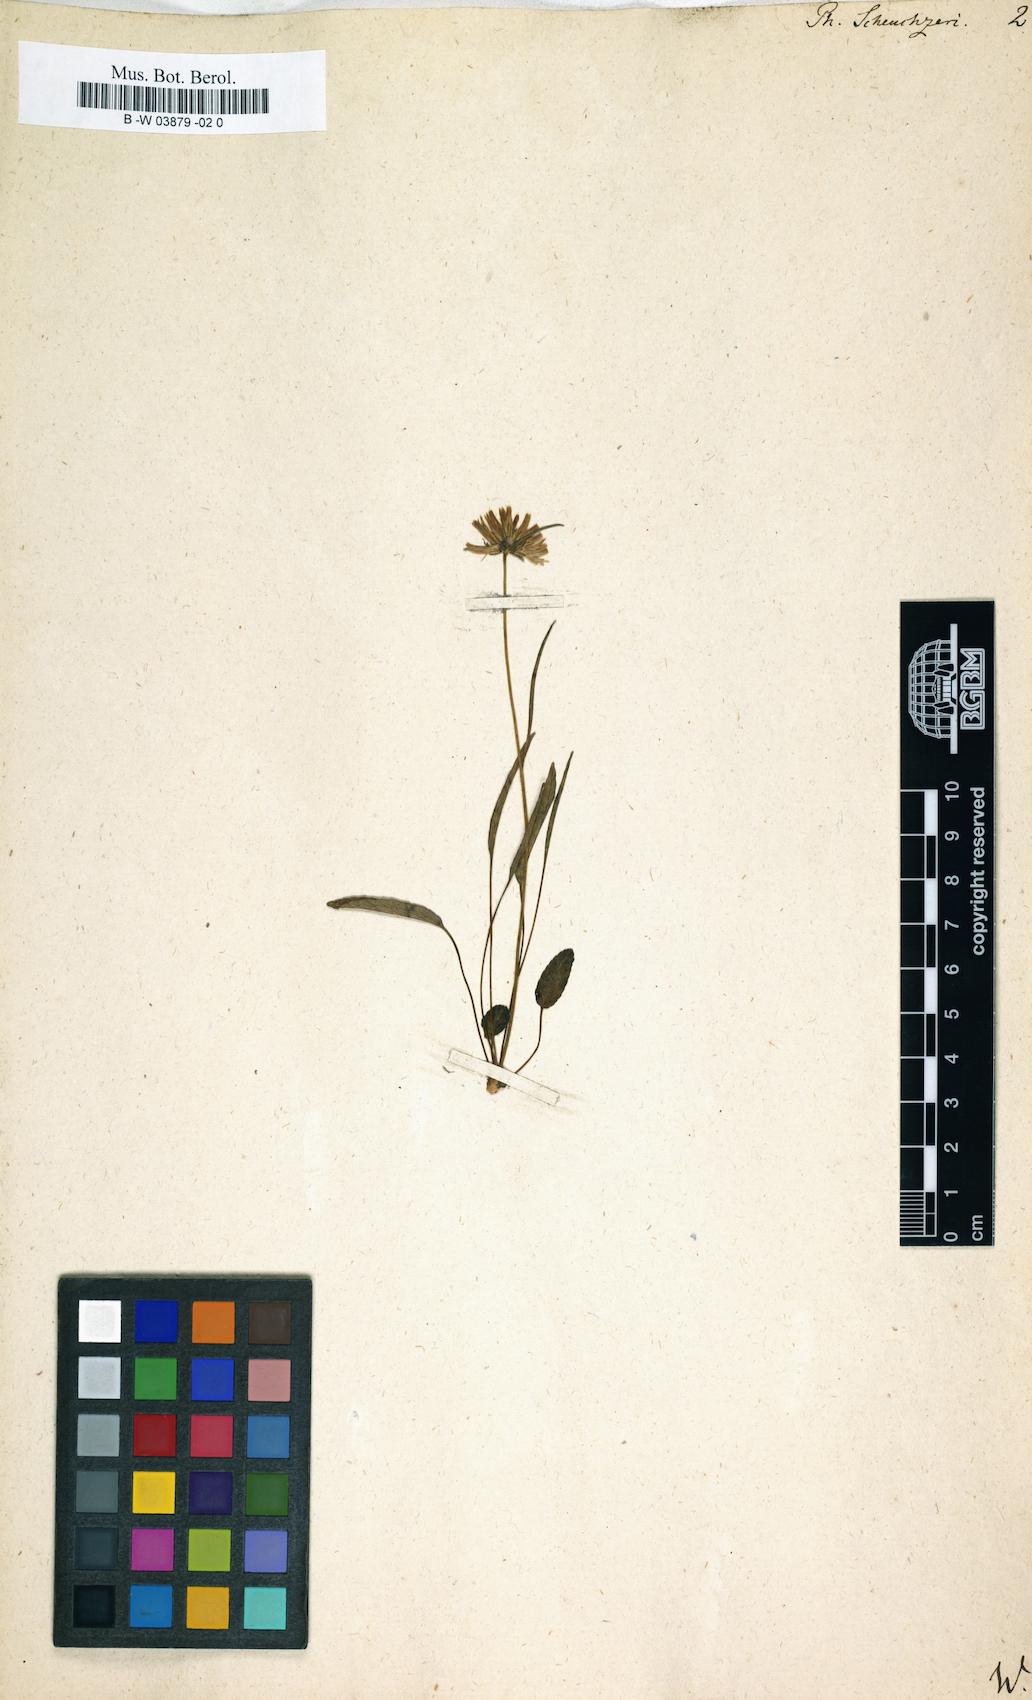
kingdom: Plantae
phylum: Tracheophyta
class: Magnoliopsida
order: Asterales
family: Campanulaceae
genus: Phyteuma
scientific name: Phyteuma scheuchzeri
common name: Oxford rampion
